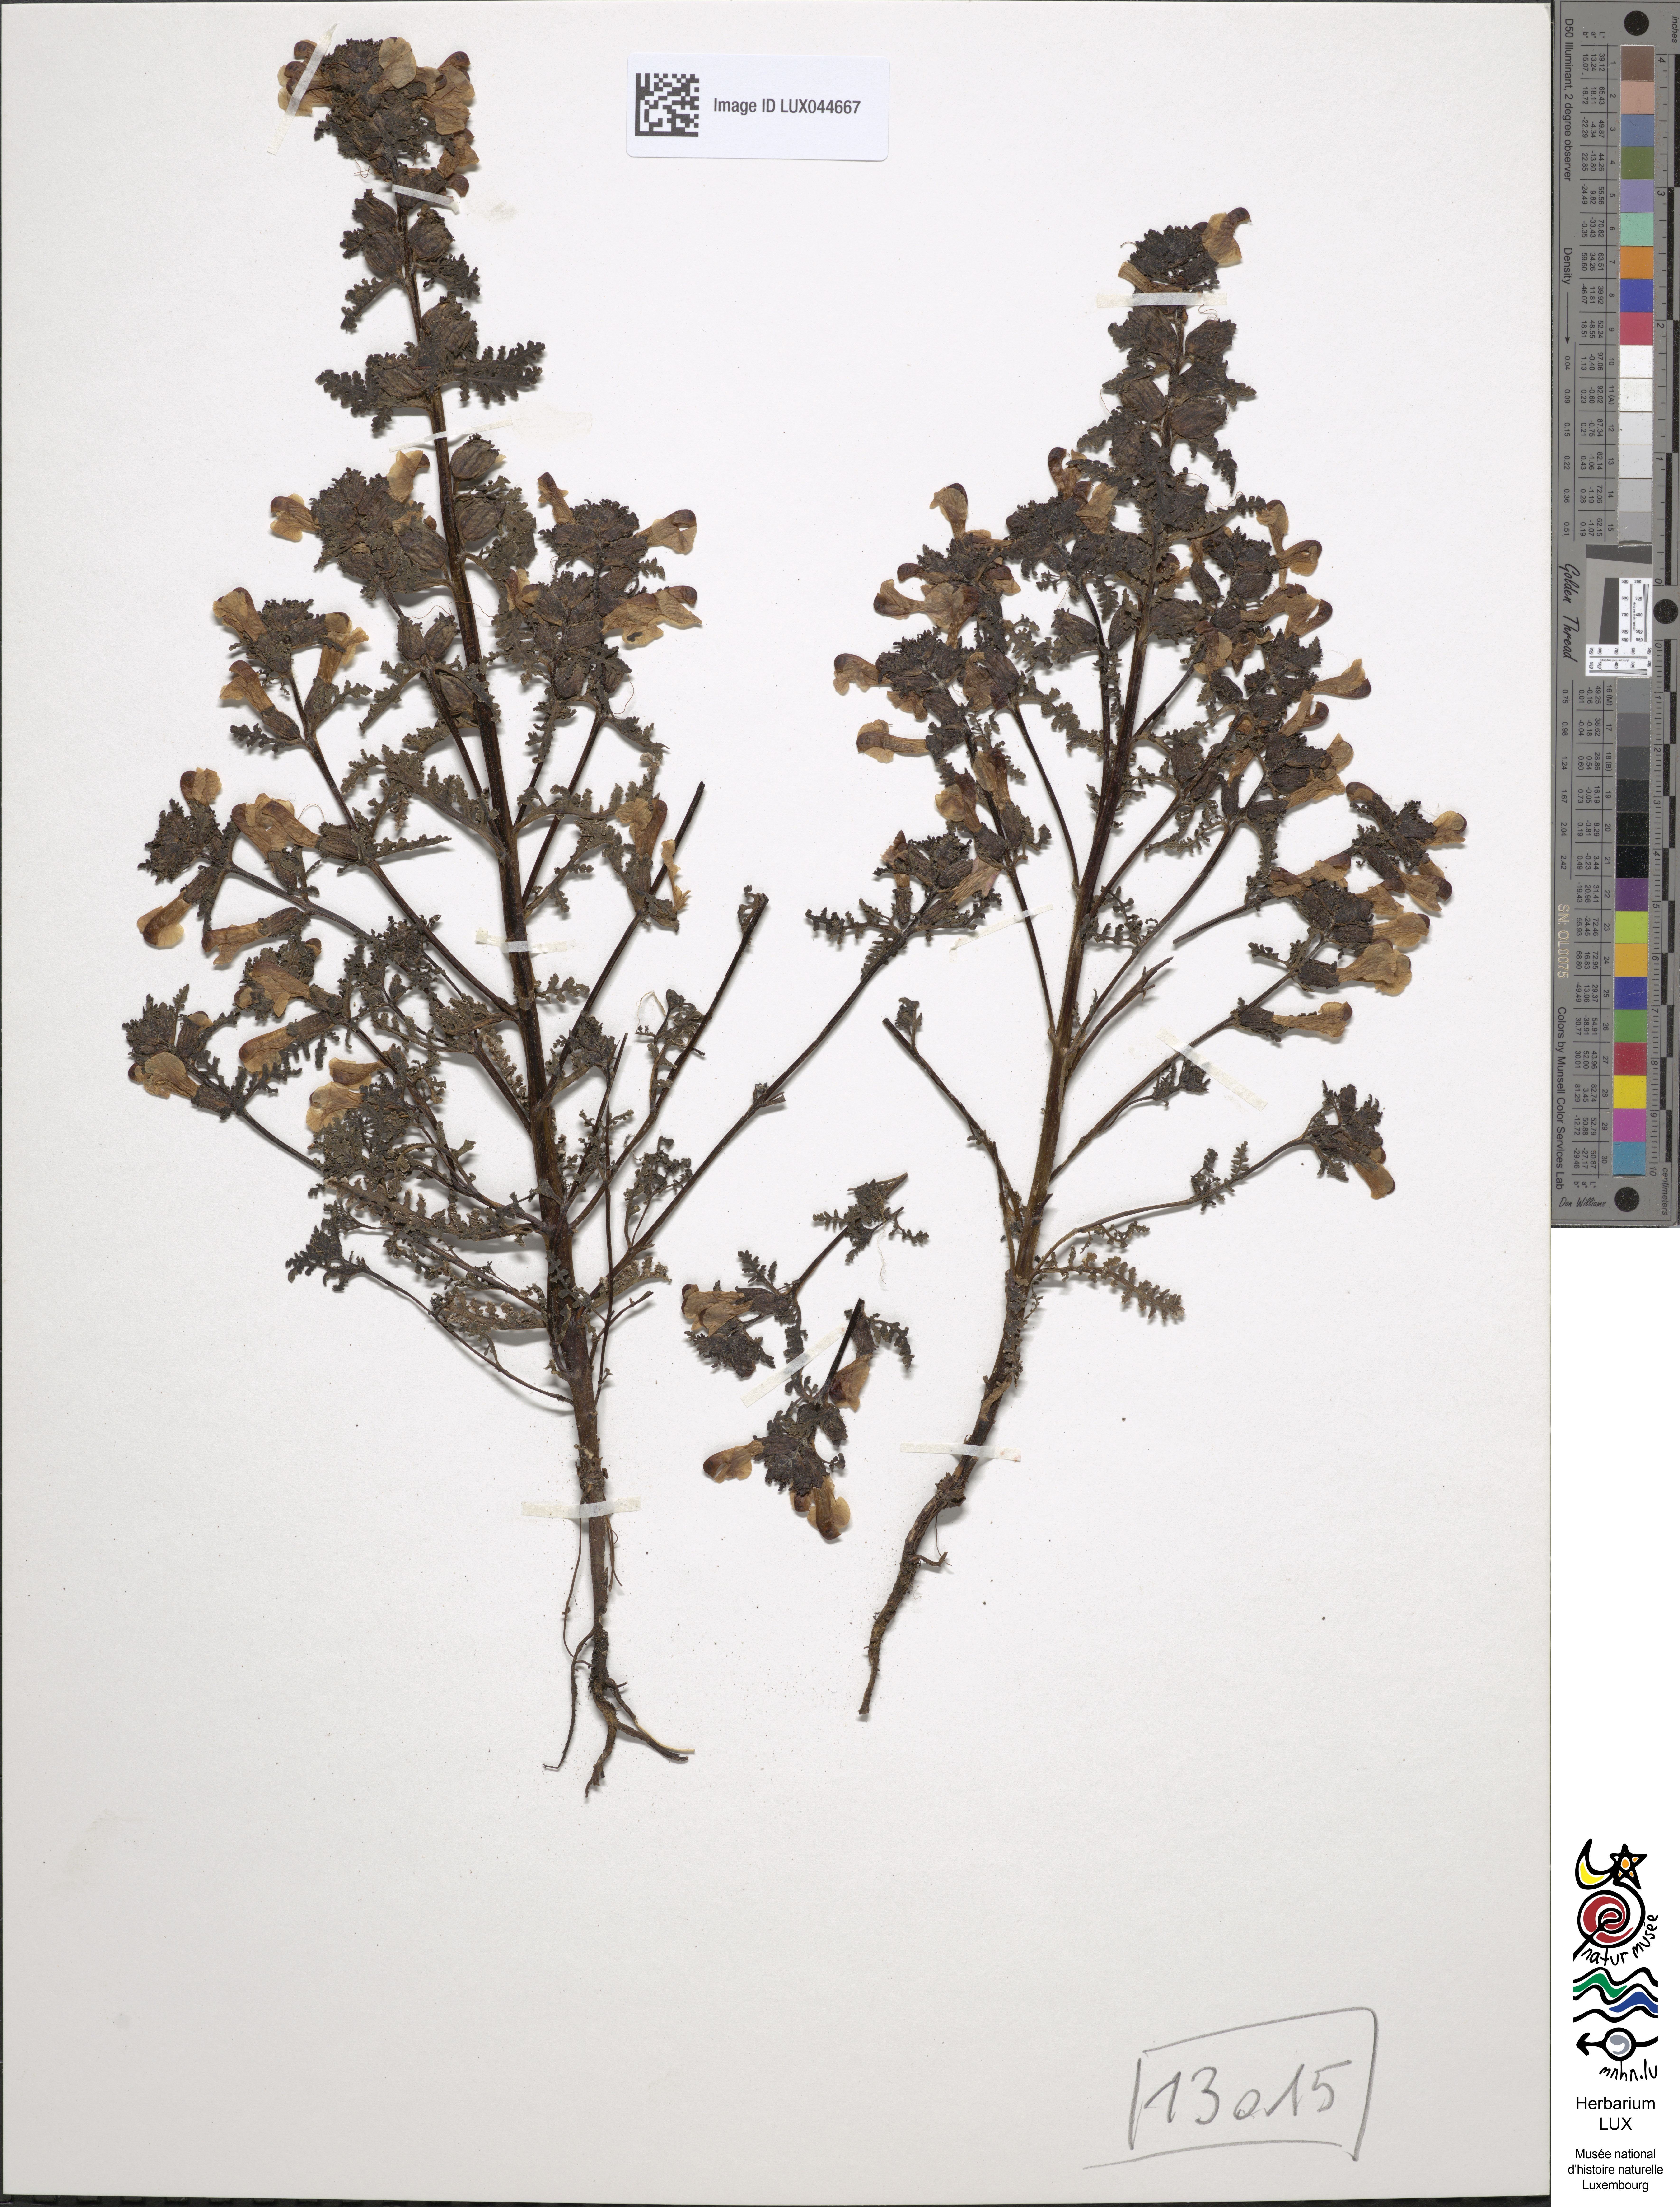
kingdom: Plantae
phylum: Tracheophyta
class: Magnoliopsida
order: Lamiales
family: Orobanchaceae
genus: Pedicularis
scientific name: Pedicularis palustris
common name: Marsh lousewort
